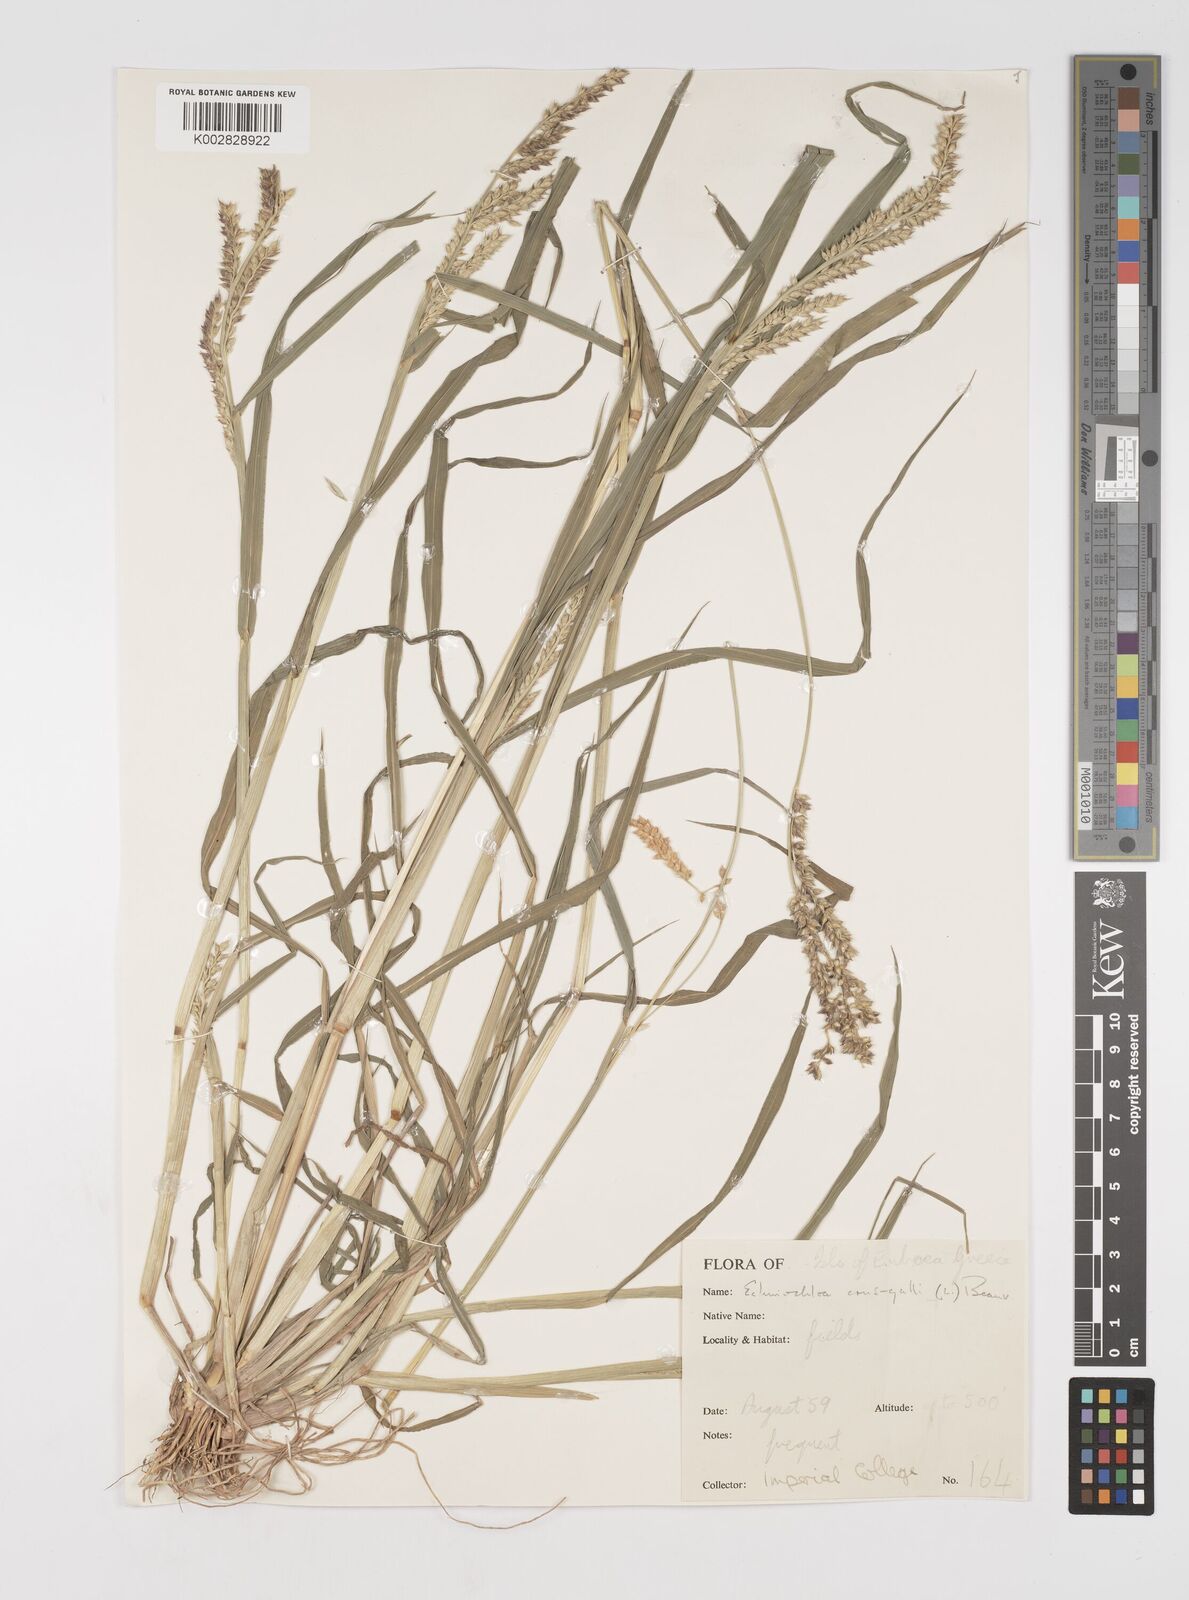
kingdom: Plantae
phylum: Tracheophyta
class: Liliopsida
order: Poales
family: Poaceae
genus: Echinochloa
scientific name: Echinochloa crus-galli
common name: Cockspur
